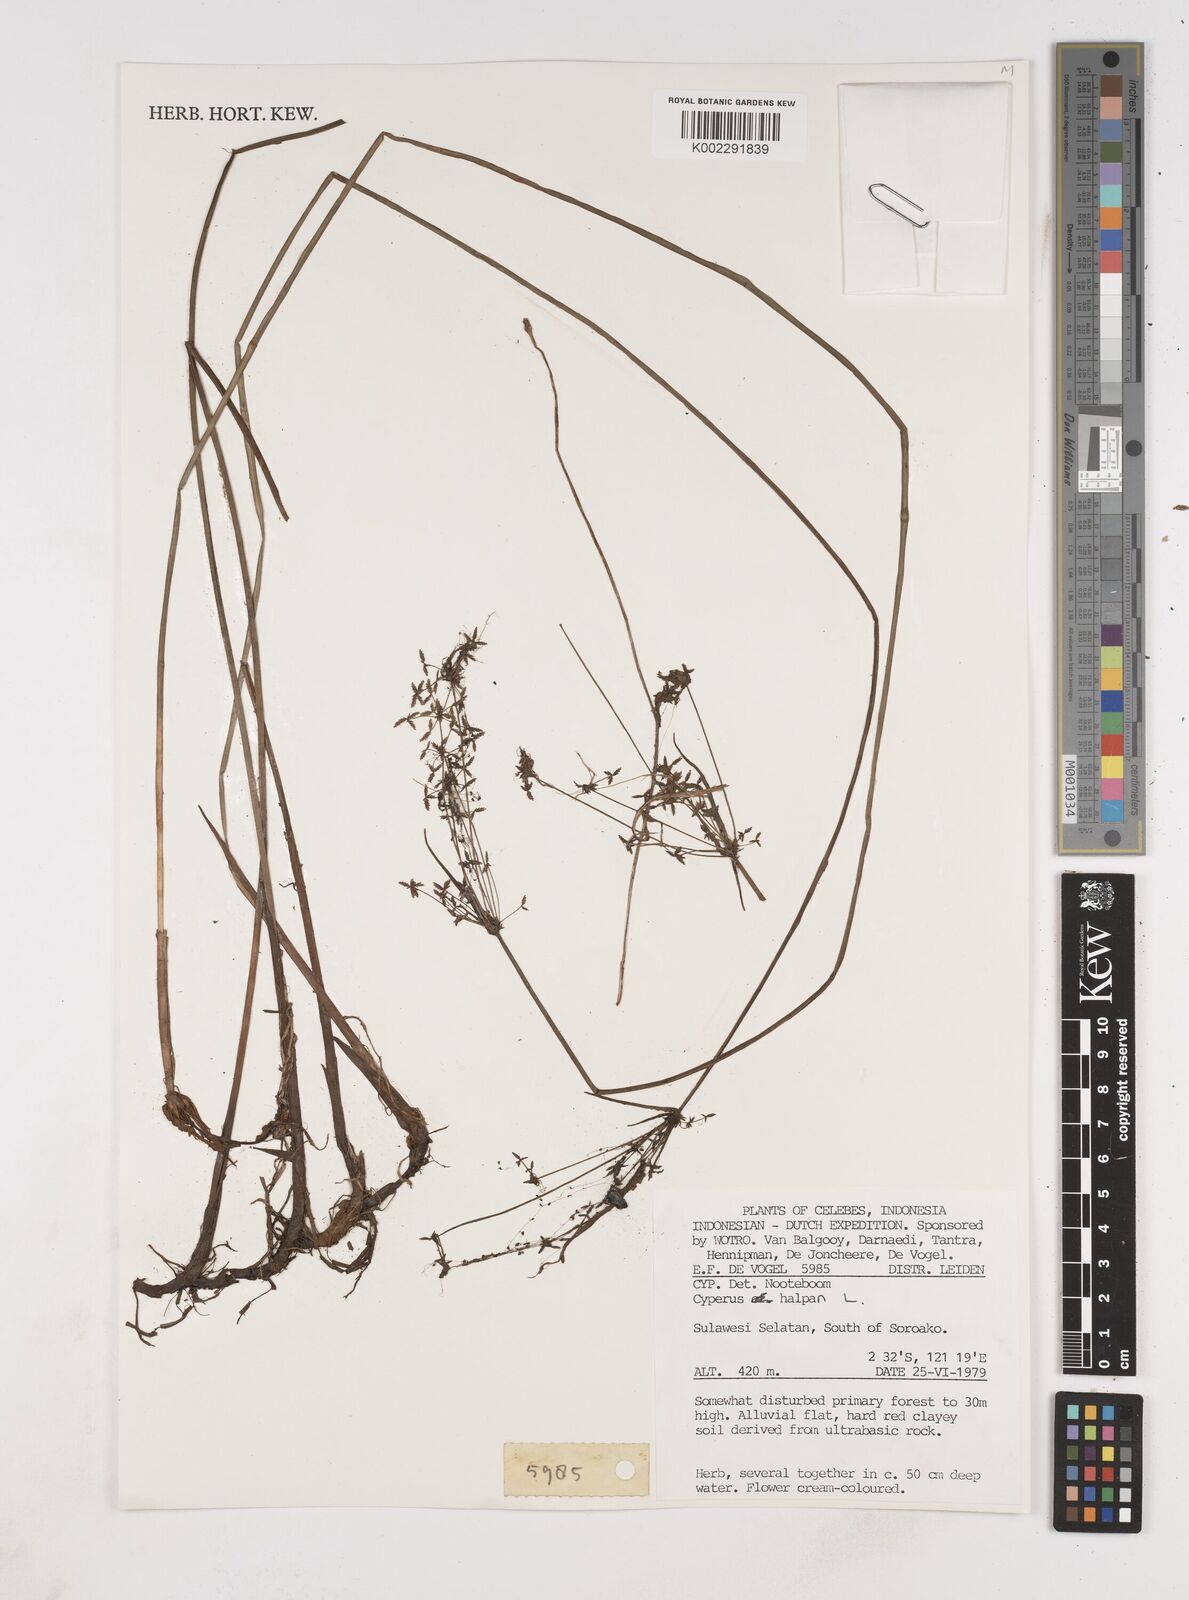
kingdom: Plantae
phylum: Tracheophyta
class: Liliopsida
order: Poales
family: Cyperaceae
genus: Cyperus
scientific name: Cyperus haspan
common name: Haspan flatsedge
